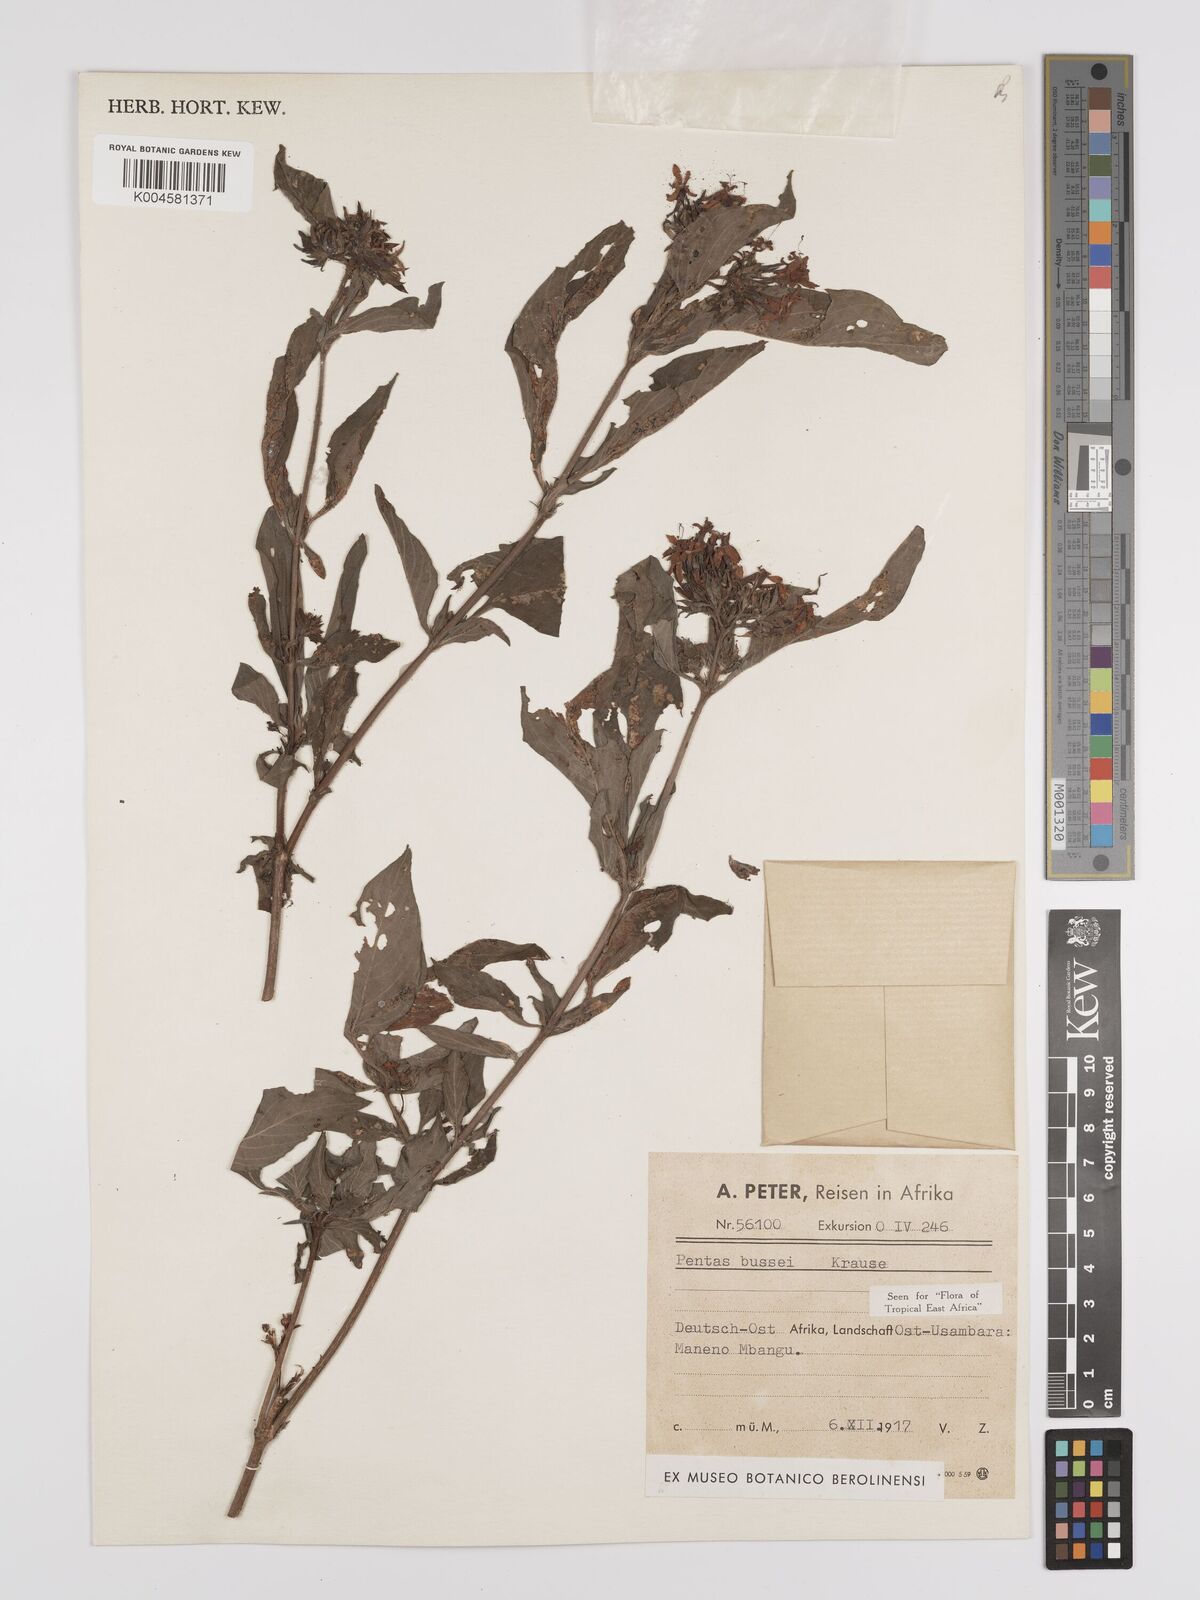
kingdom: Plantae
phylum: Tracheophyta
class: Magnoliopsida
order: Gentianales
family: Rubiaceae
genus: Rhodopentas
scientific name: Rhodopentas bussei
